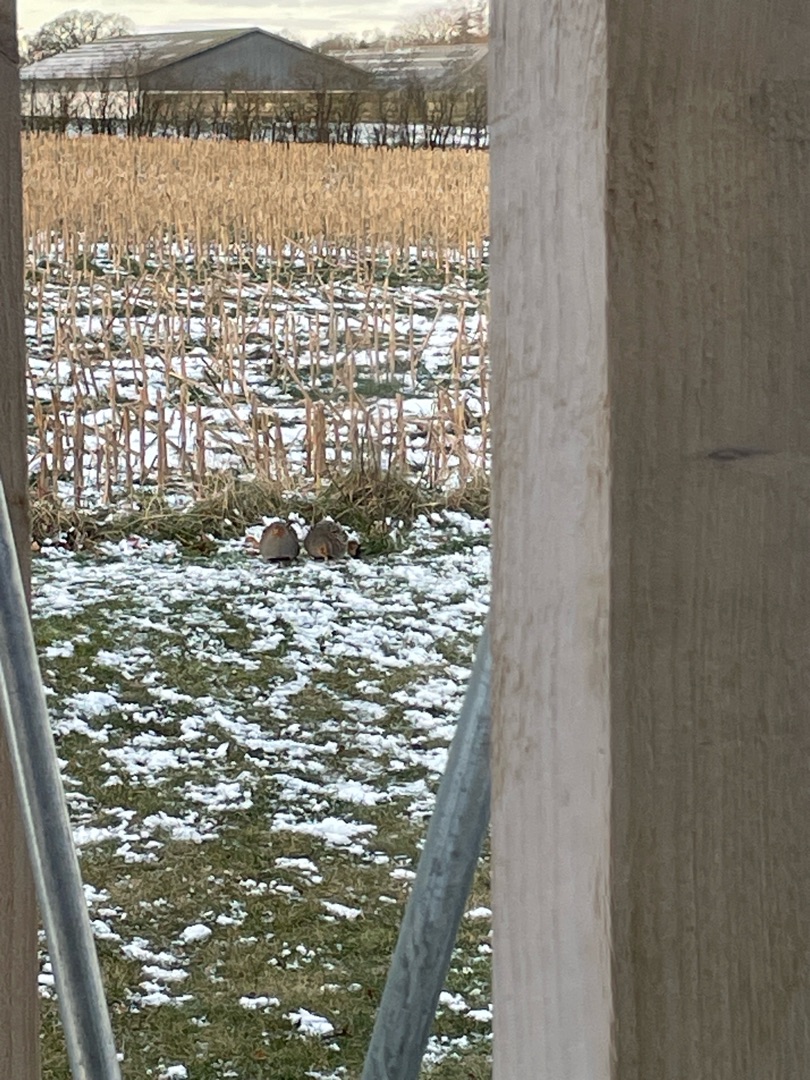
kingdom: Animalia
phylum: Chordata
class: Aves
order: Galliformes
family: Phasianidae
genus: Perdix
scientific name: Perdix perdix
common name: Agerhøne
